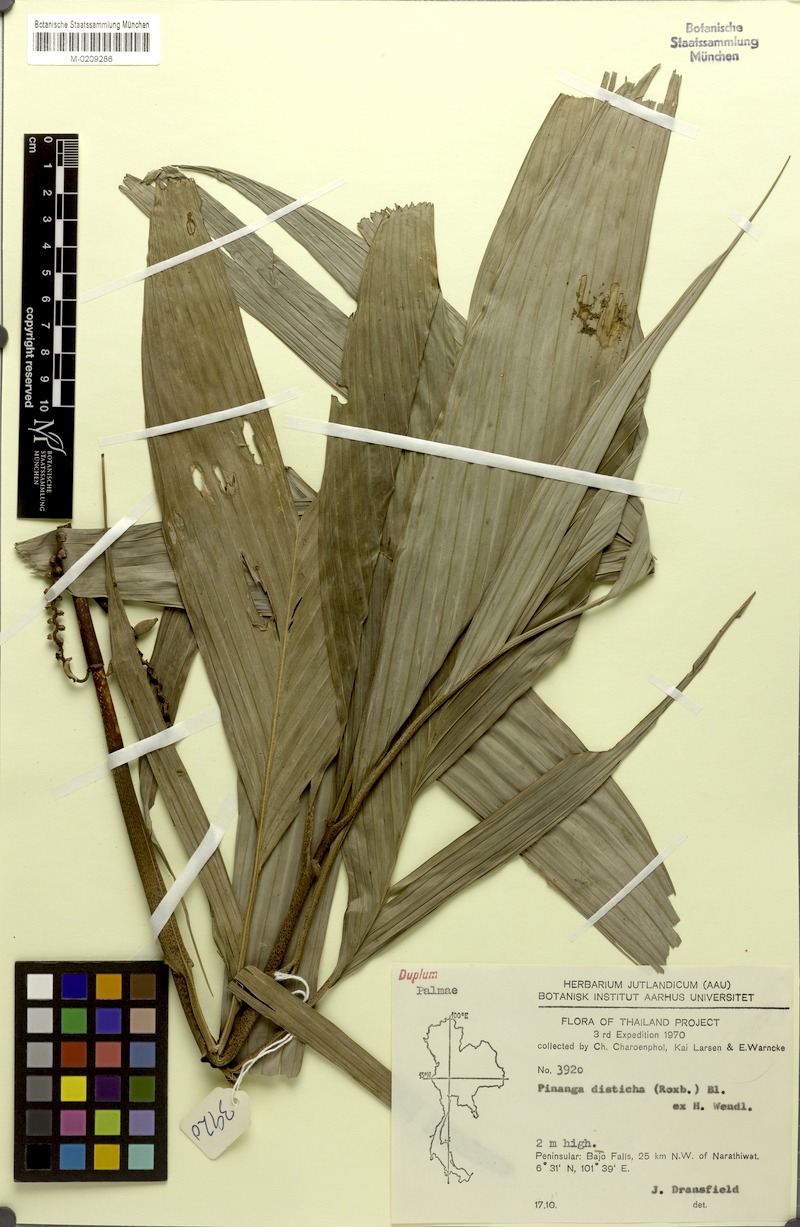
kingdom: Plantae
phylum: Tracheophyta
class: Liliopsida
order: Arecales
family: Arecaceae
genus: Pinanga
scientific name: Pinanga disticha
